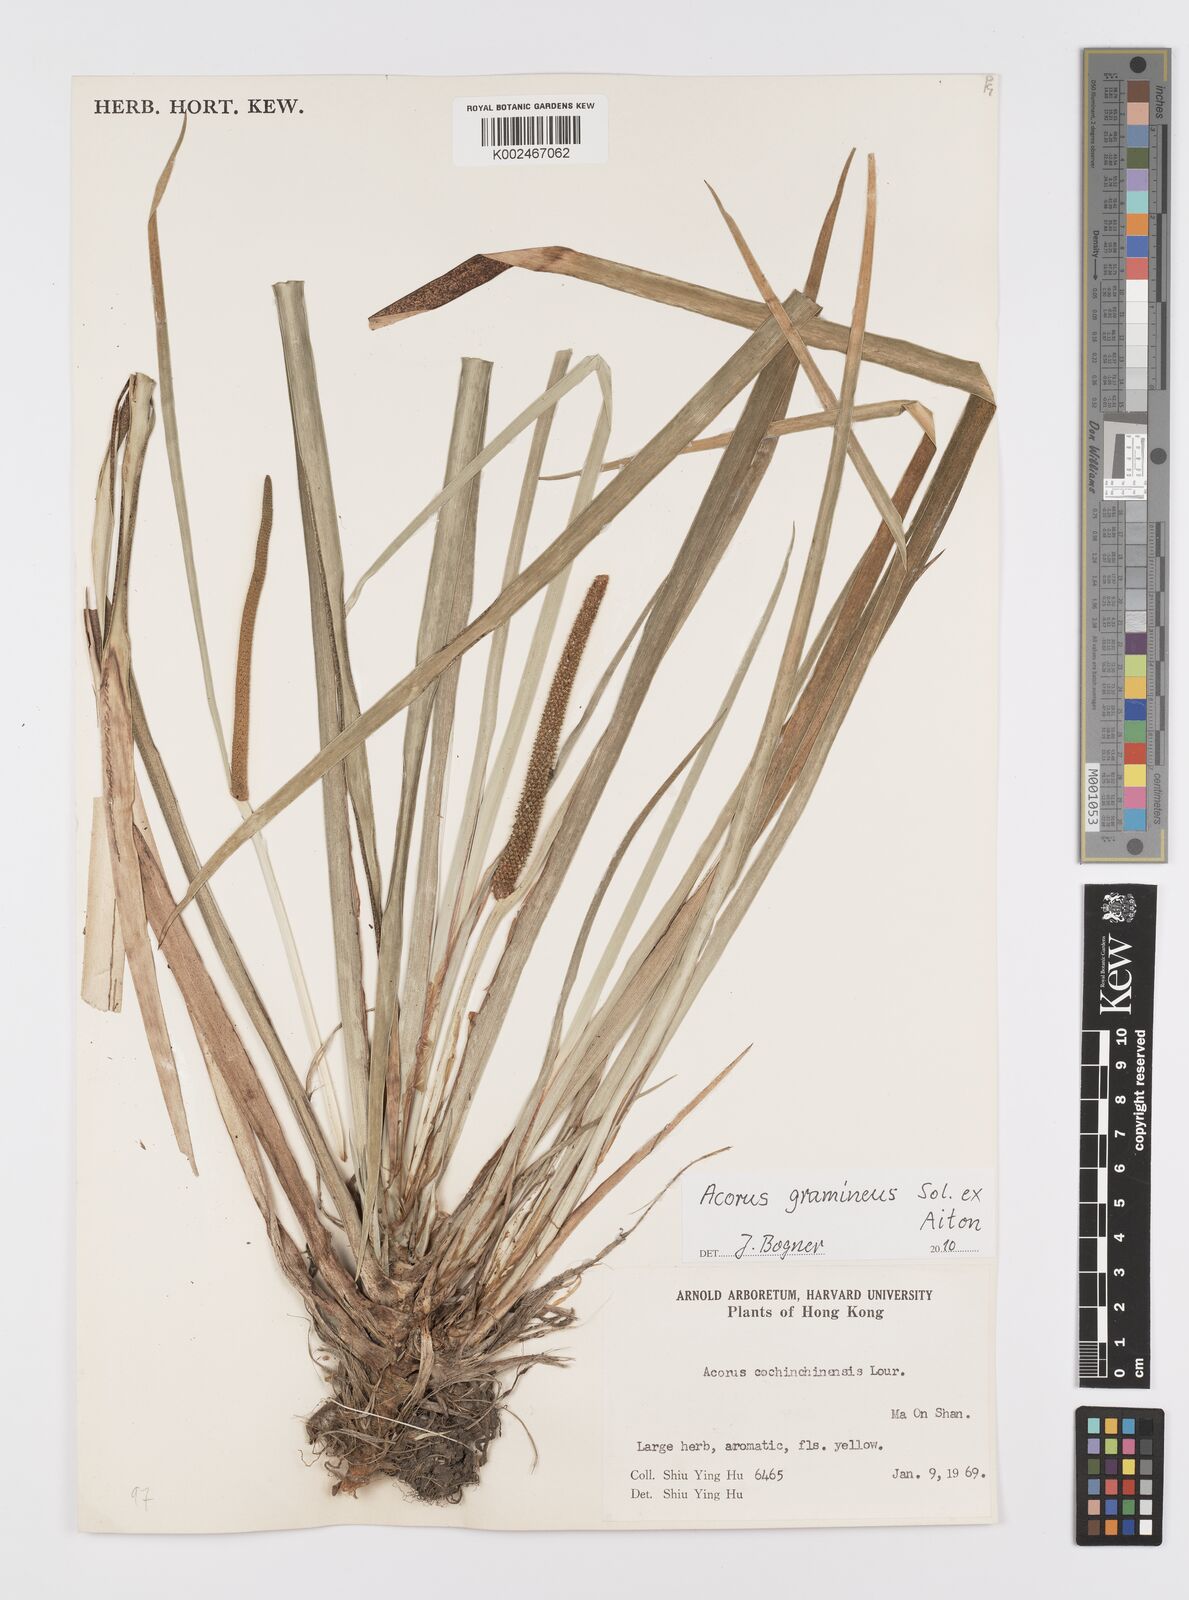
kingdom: Plantae
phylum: Tracheophyta
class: Liliopsida
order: Acorales
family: Acoraceae
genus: Acorus
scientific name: Acorus calamus
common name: Sweet-flag
